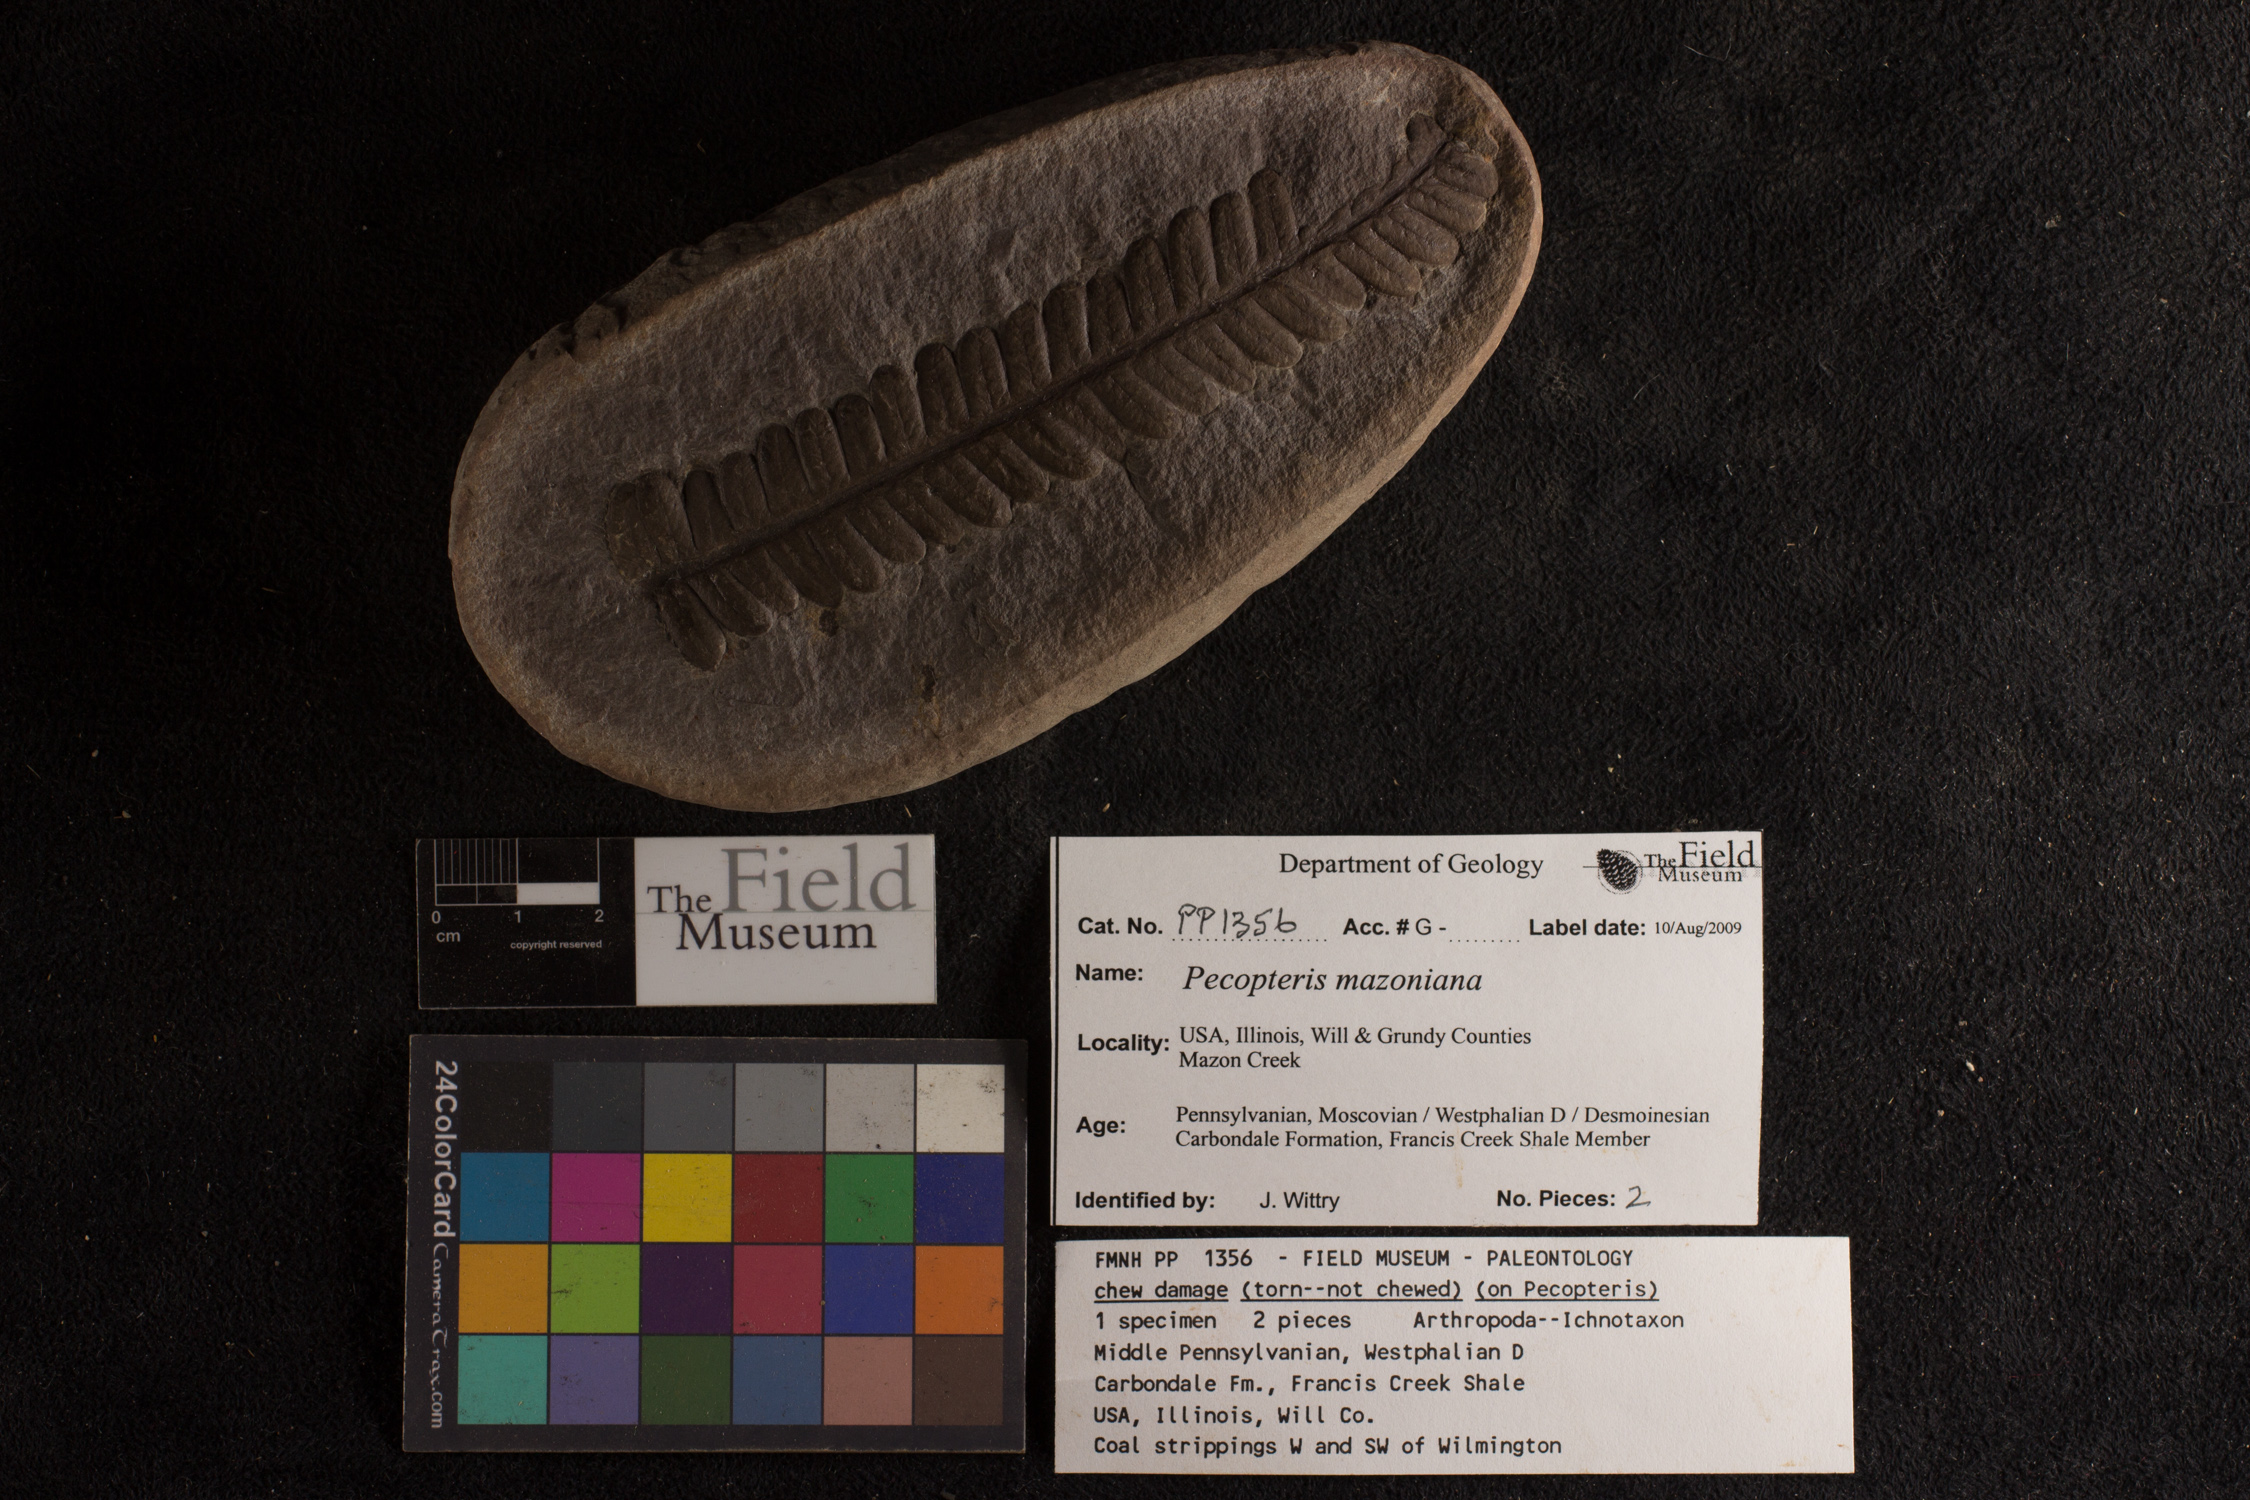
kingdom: Plantae
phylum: Tracheophyta
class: Polypodiopsida
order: Marattiales
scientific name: Marattiales
